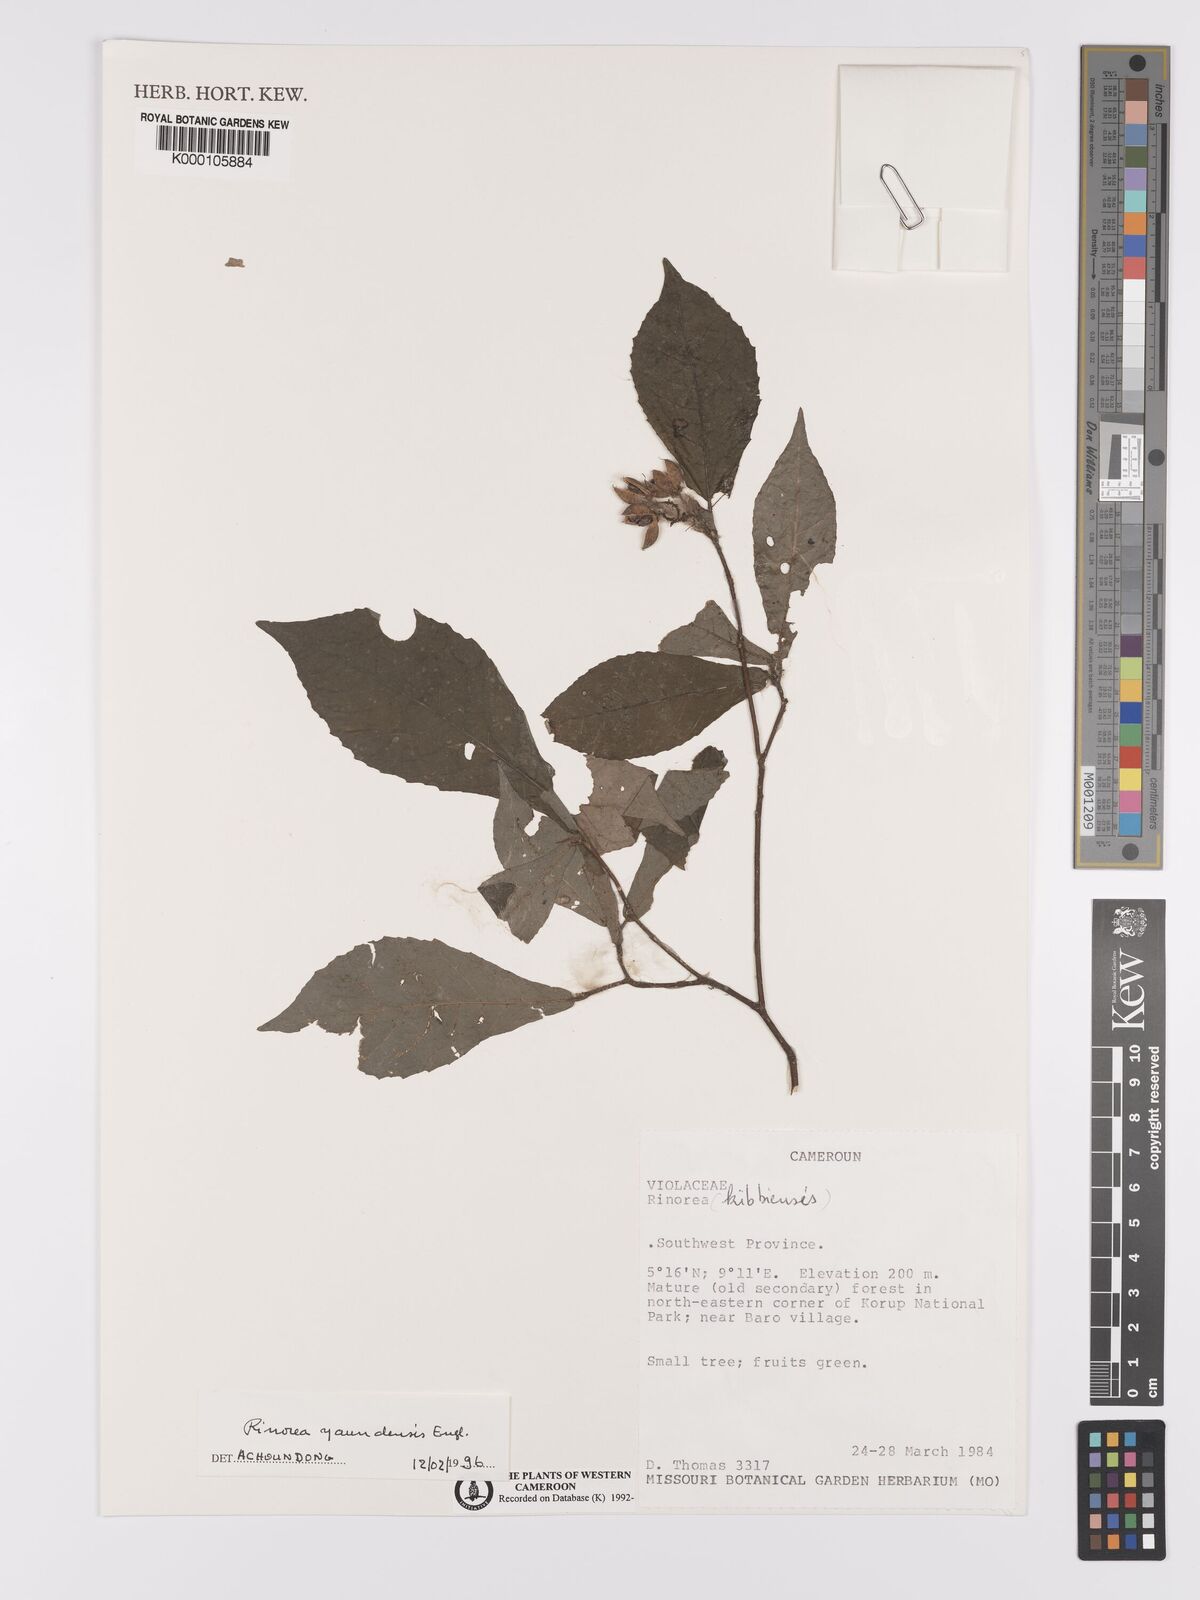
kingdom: Plantae
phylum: Tracheophyta
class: Magnoliopsida
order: Malpighiales
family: Violaceae
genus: Rinorea
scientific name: Rinorea yaundensis
